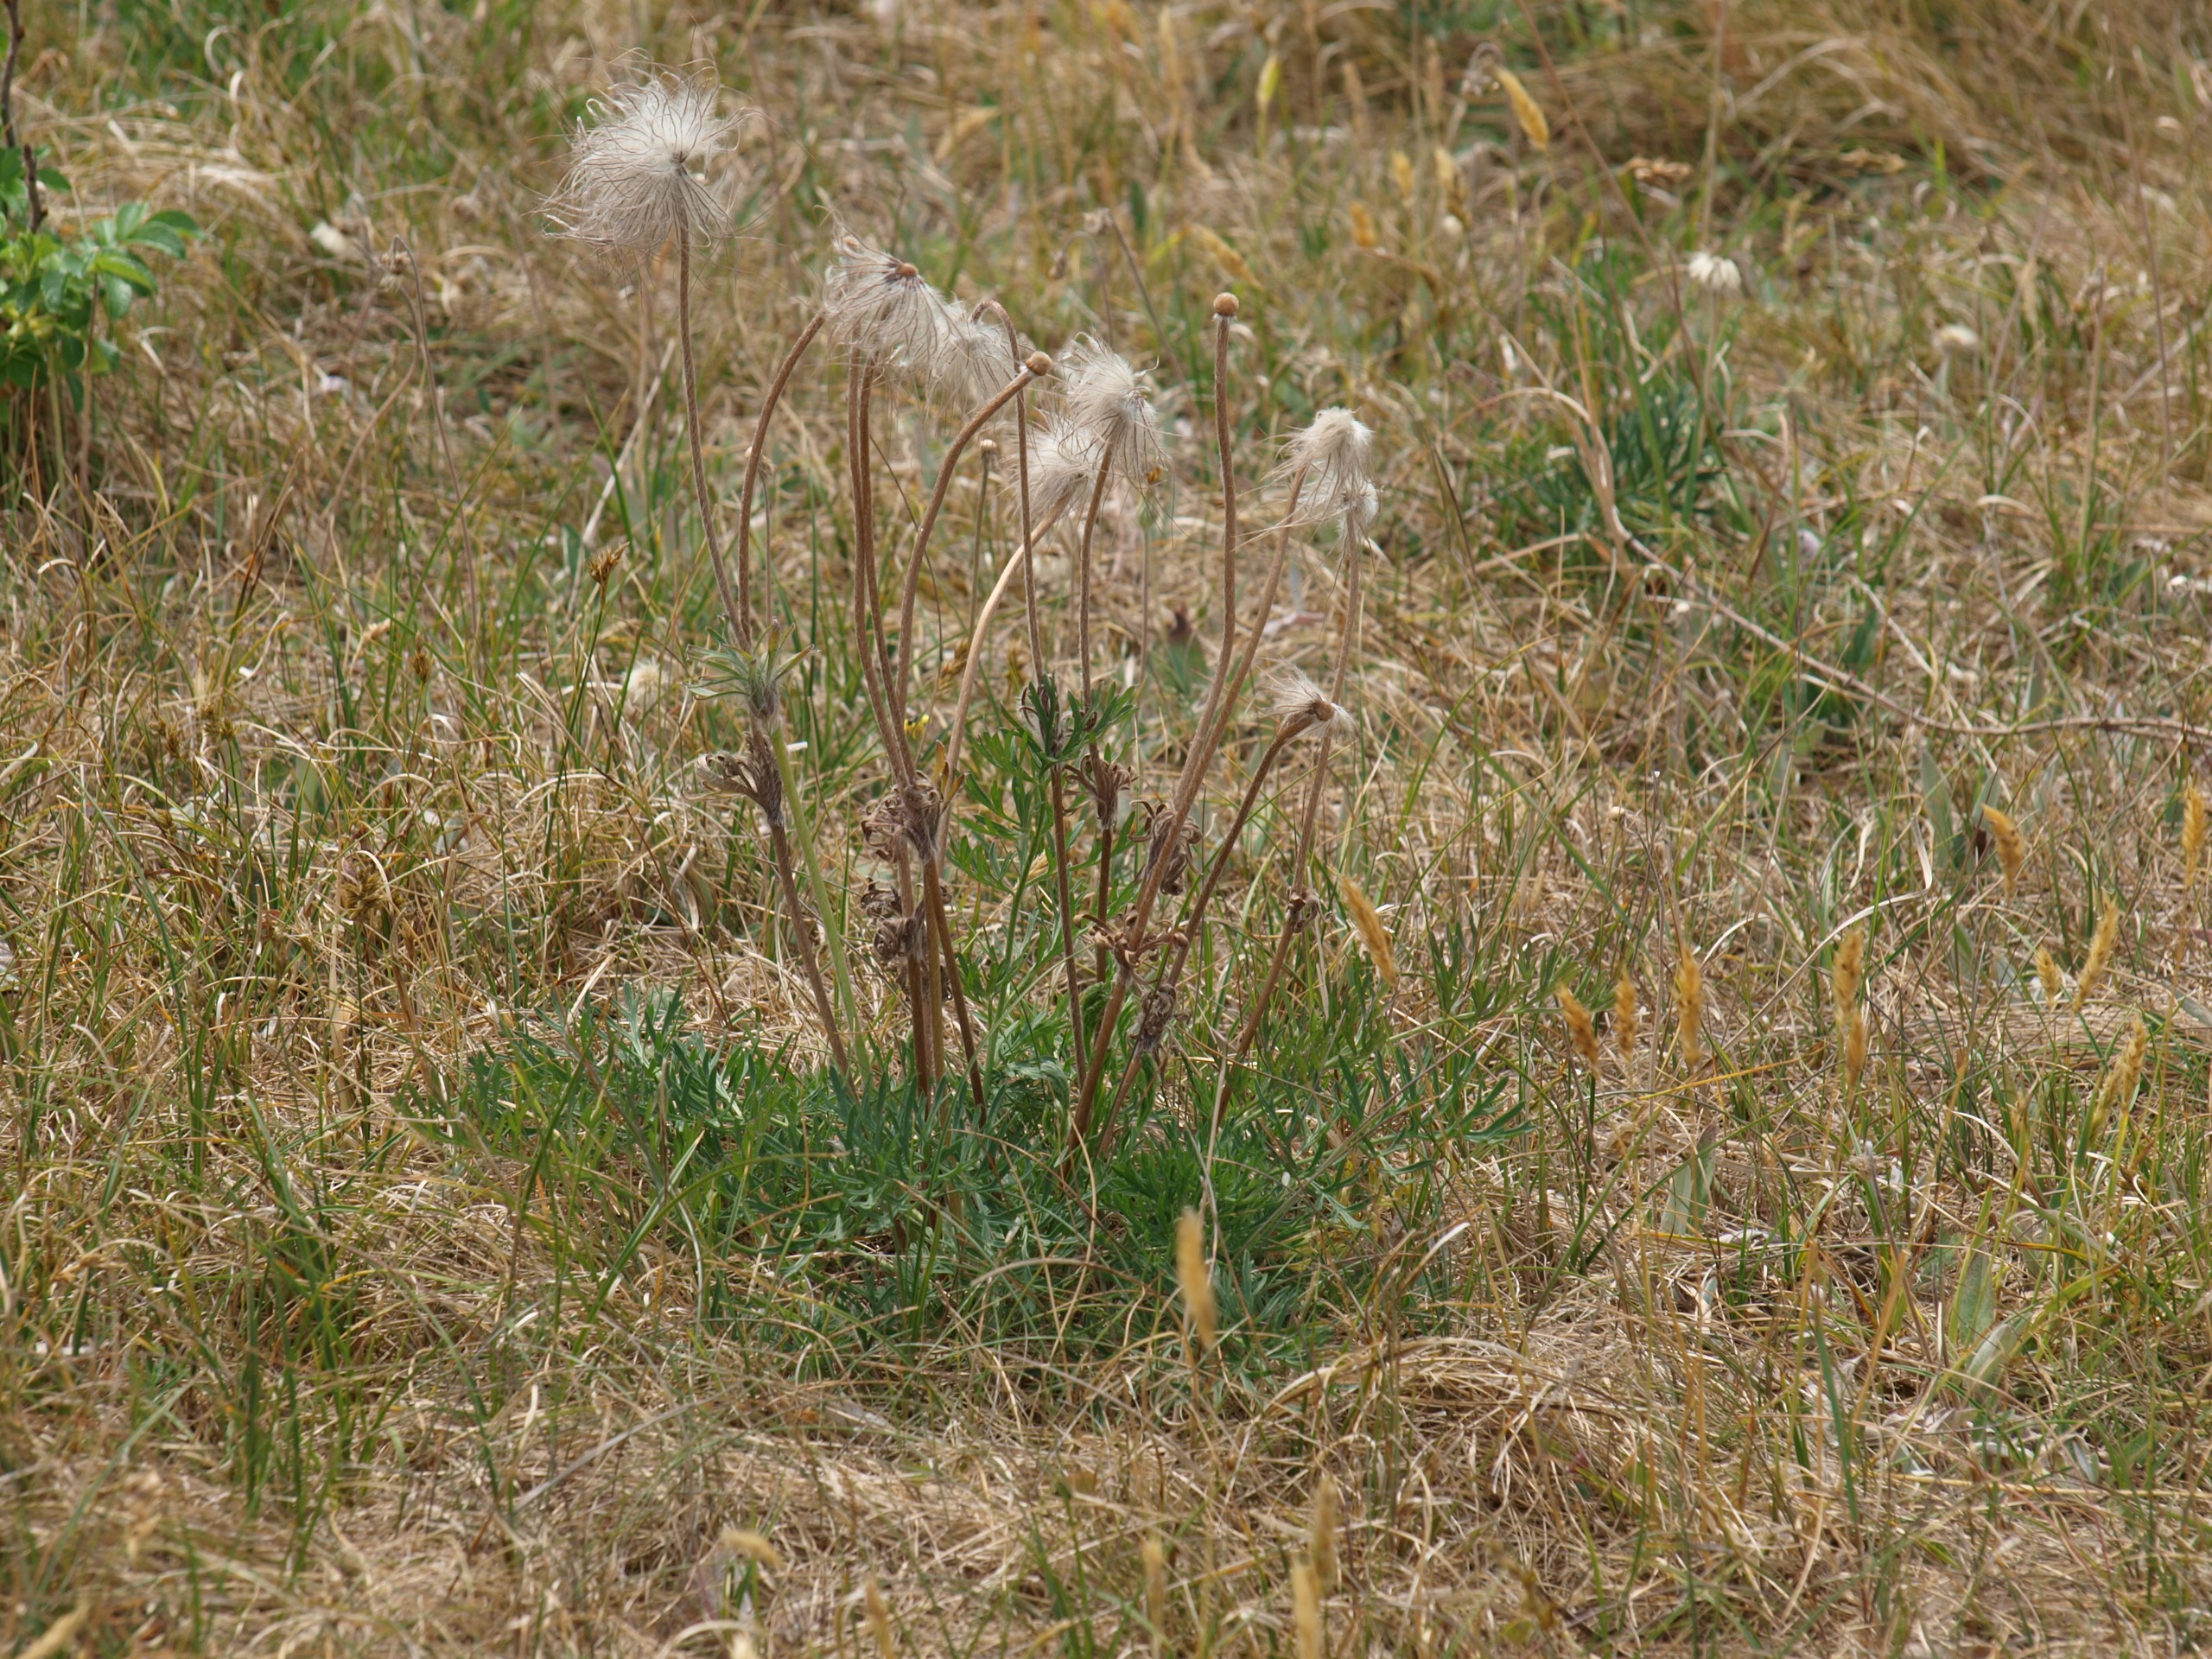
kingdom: Plantae
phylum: Tracheophyta
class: Magnoliopsida
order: Ranunculales
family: Ranunculaceae
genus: Pulsatilla
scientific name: Pulsatilla pratensis
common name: Nikkende kobjælde
